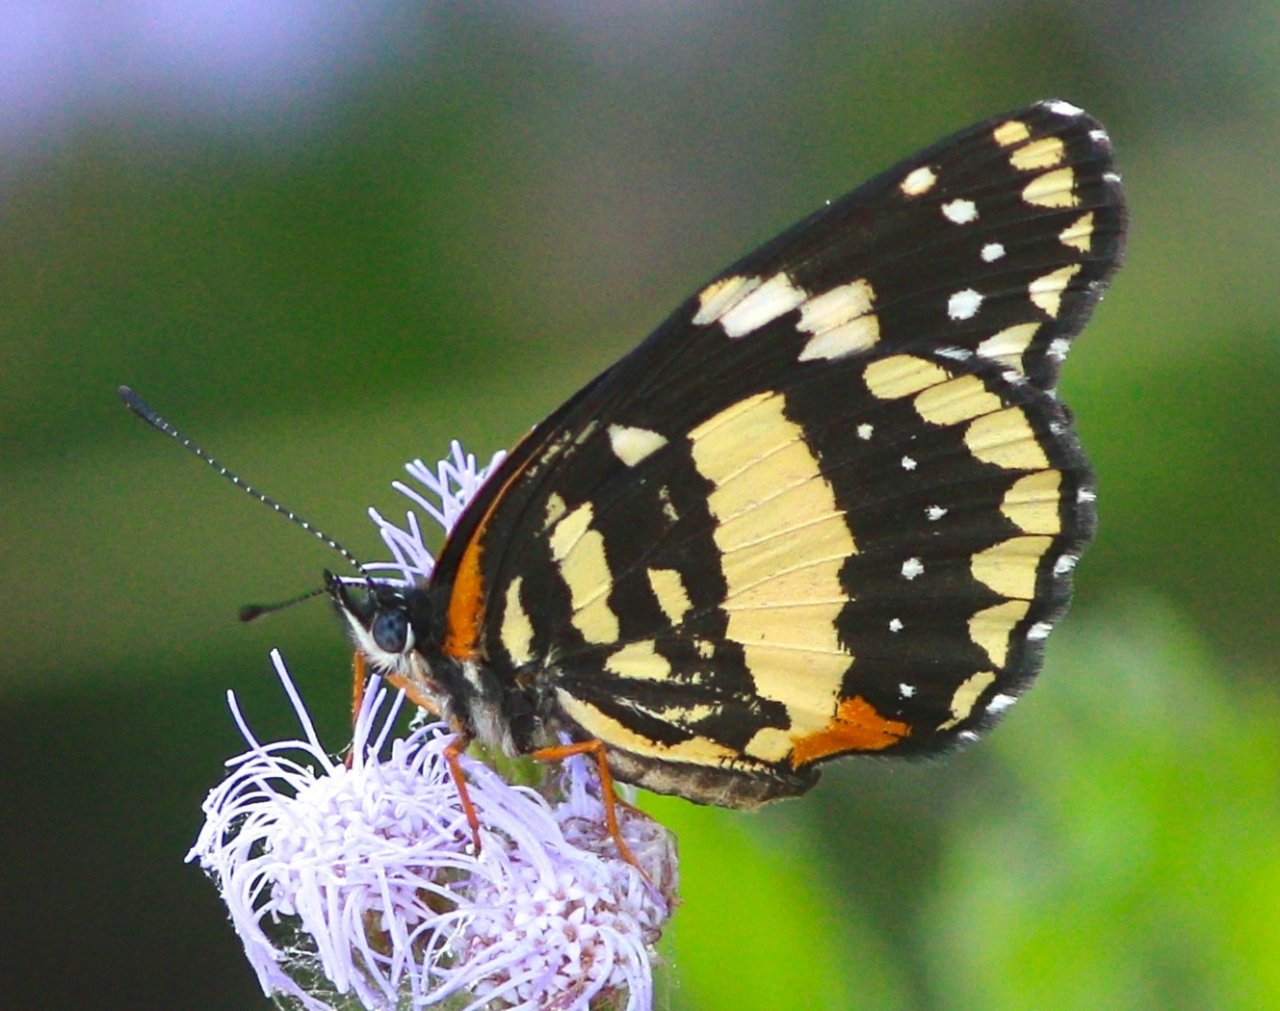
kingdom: Animalia
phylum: Arthropoda
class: Insecta
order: Lepidoptera
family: Nymphalidae
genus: Chlosyne
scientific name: Chlosyne lacinia
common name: Bordered Patch
